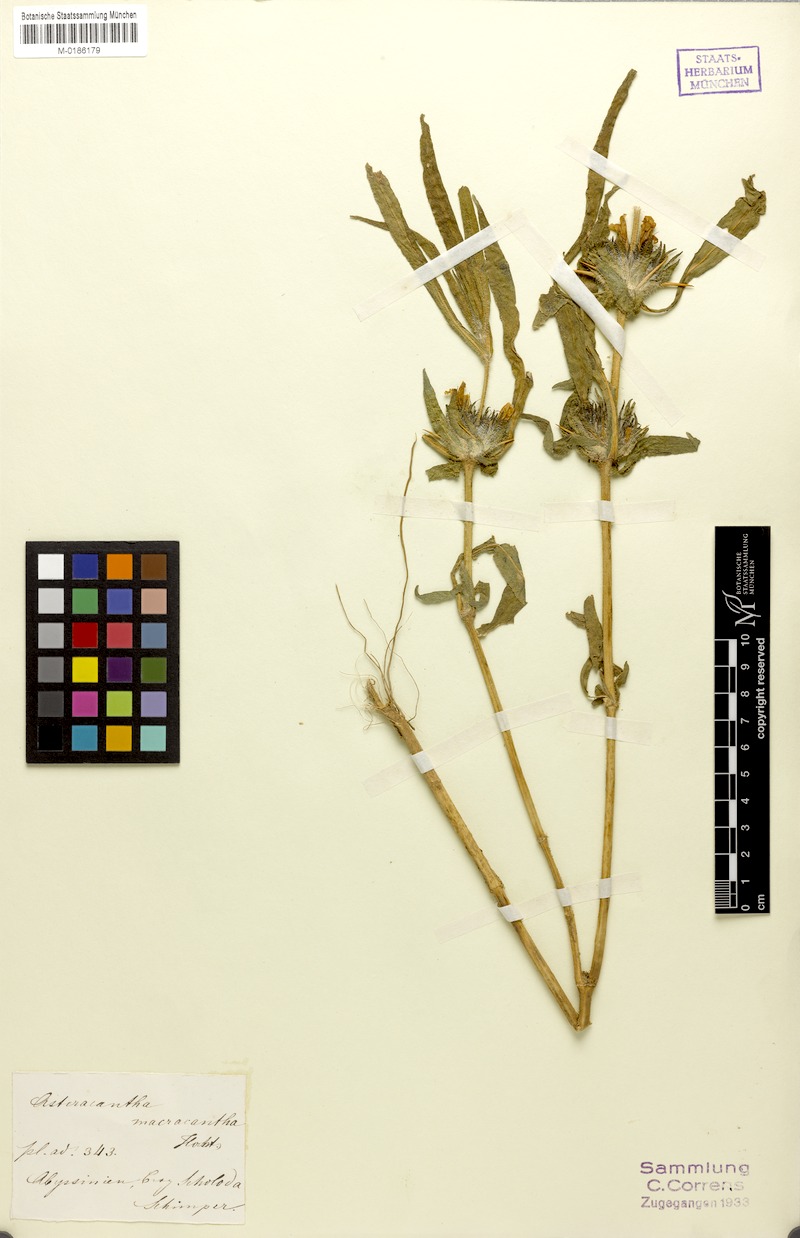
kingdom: Plantae
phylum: Tracheophyta
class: Magnoliopsida
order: Lamiales
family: Acanthaceae
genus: Hygrophila
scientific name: Hygrophila auriculata
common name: Hygrophila
